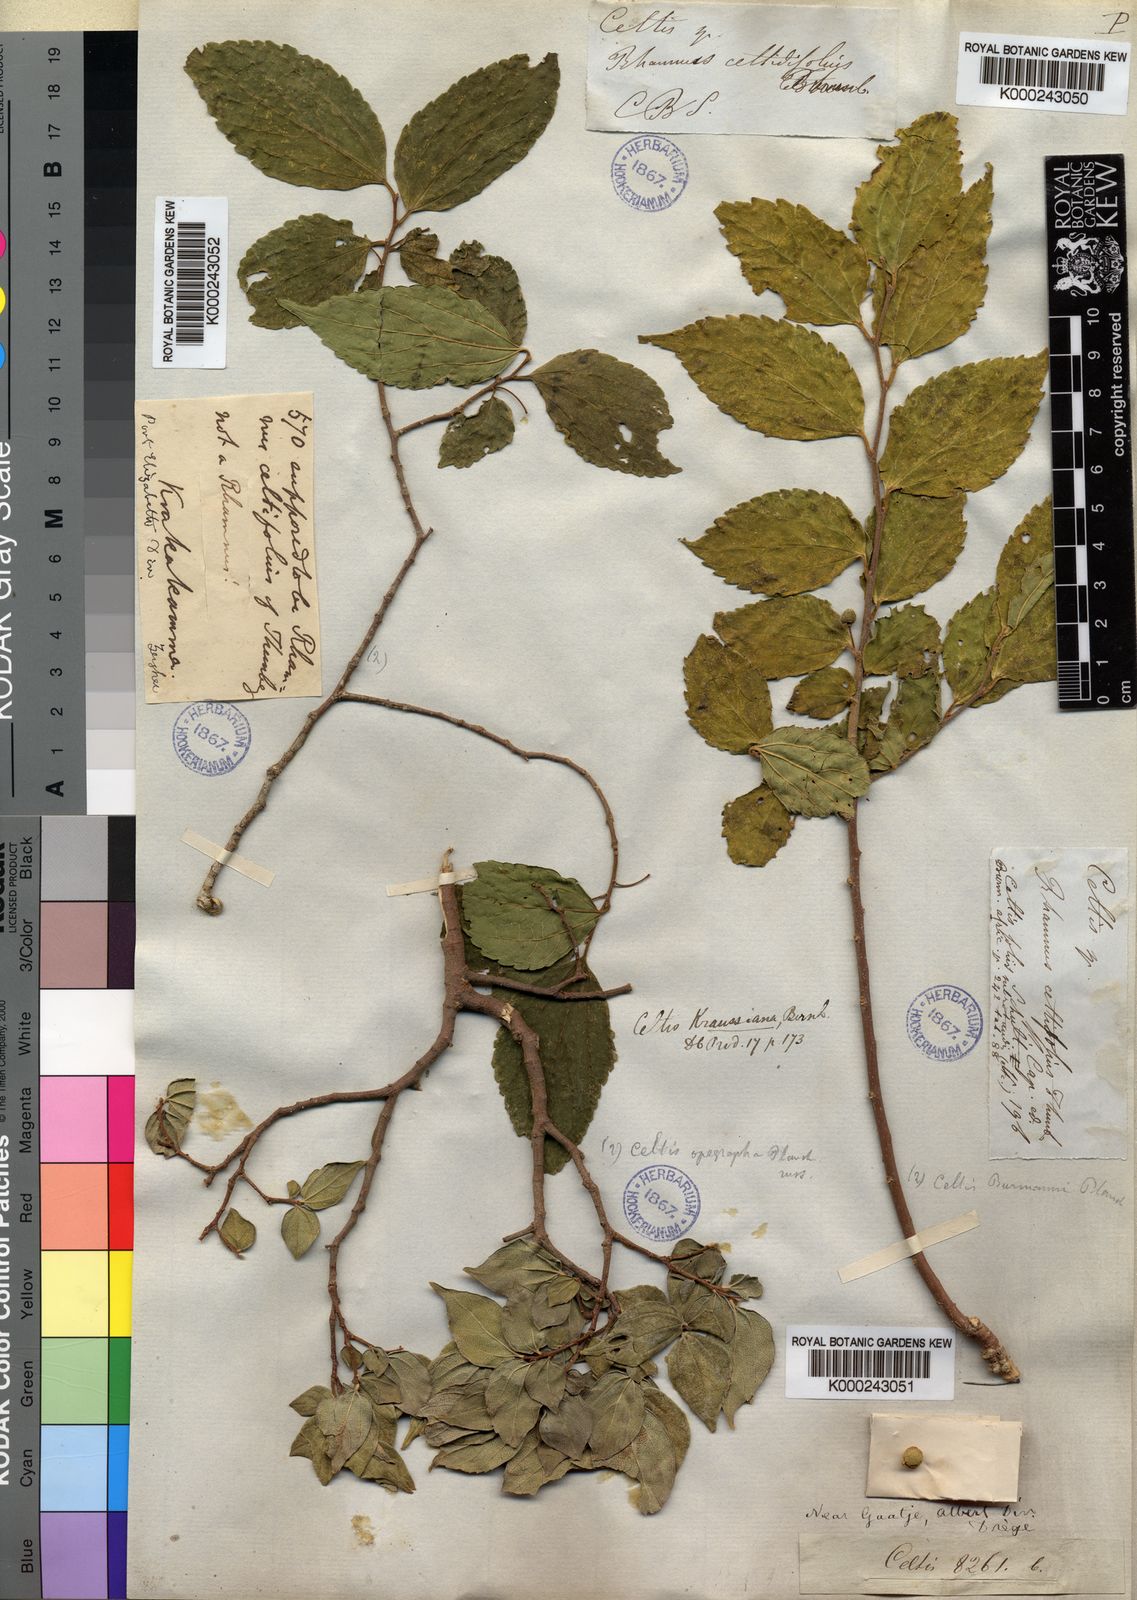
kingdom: Plantae
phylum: Tracheophyta
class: Magnoliopsida
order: Rosales
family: Cannabaceae
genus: Celtis
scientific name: Celtis africana
